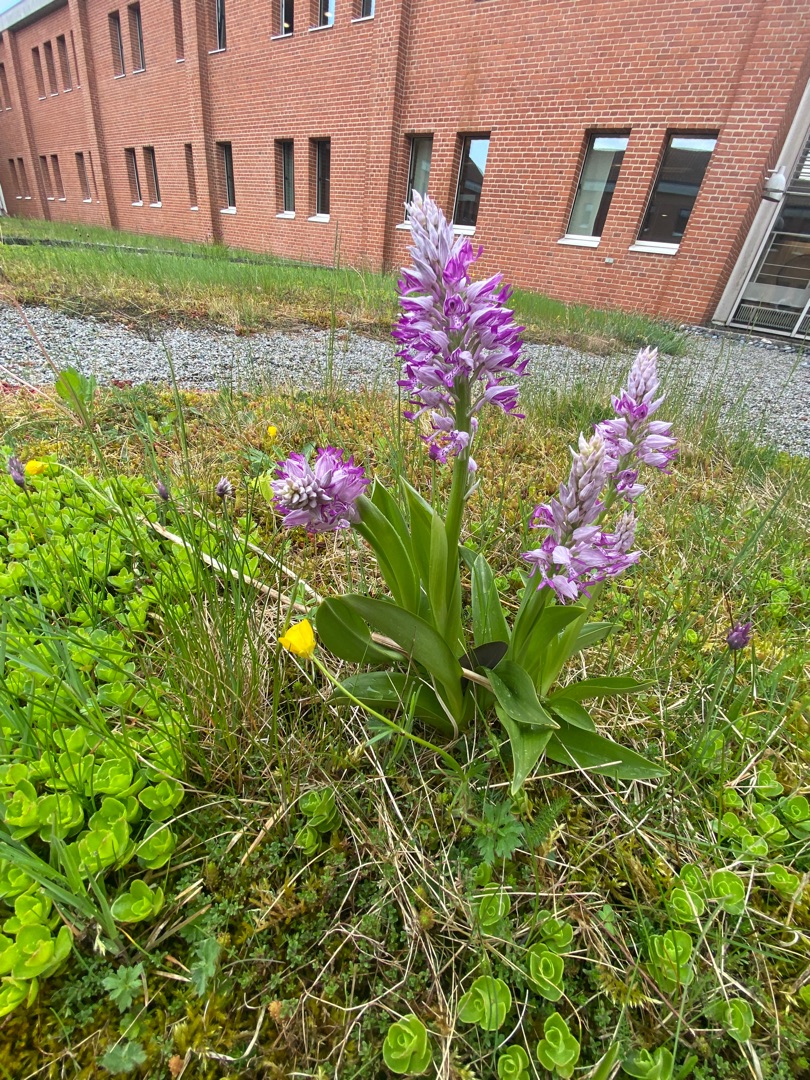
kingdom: Plantae
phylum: Tracheophyta
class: Liliopsida
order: Asparagales
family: Orchidaceae
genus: Orchis
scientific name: Orchis militaris
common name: Ridder-gøgeurt
